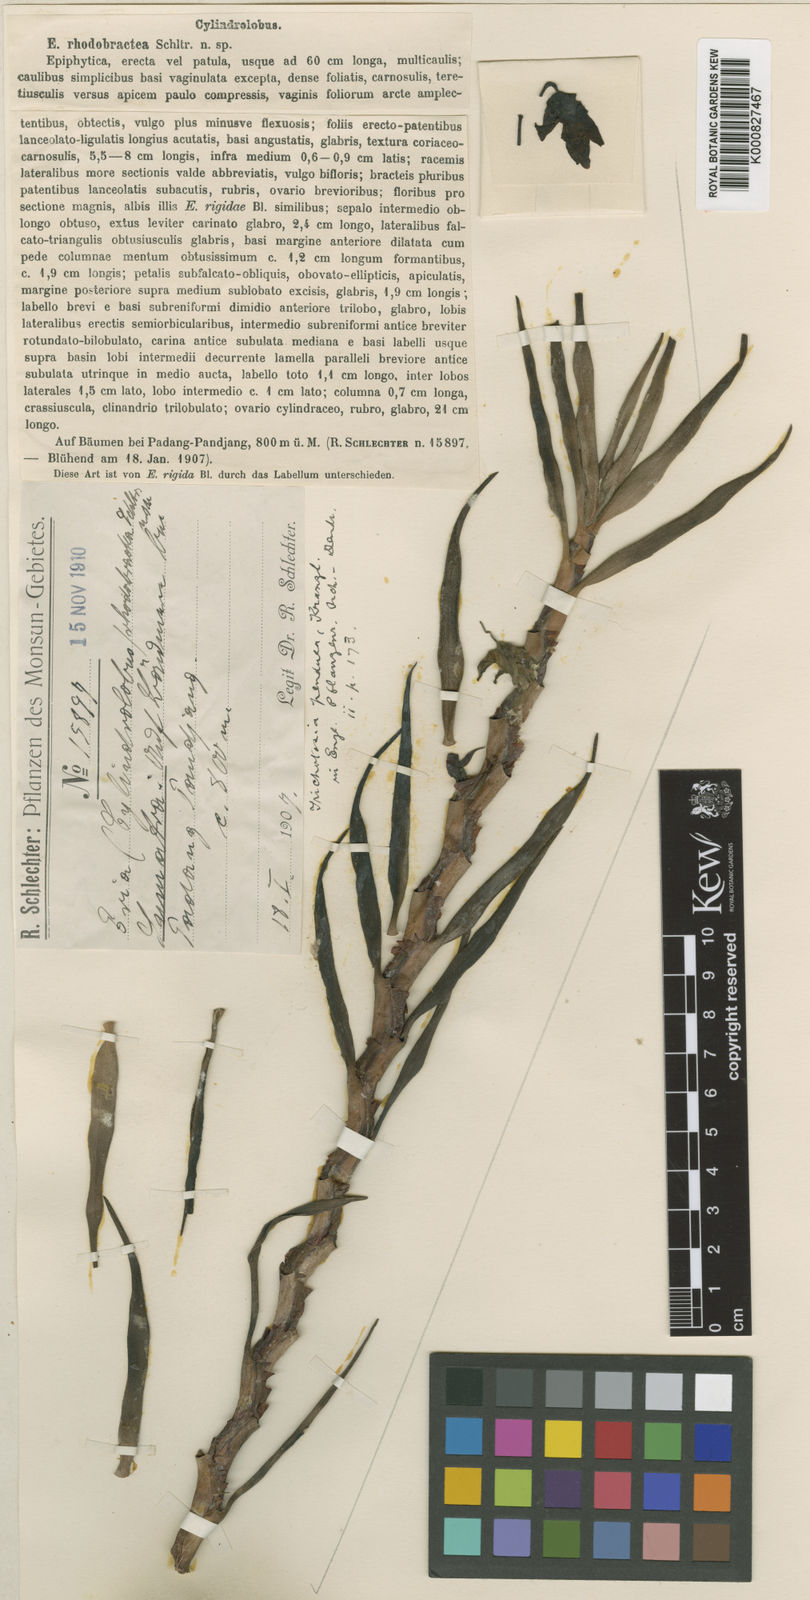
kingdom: Plantae
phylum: Tracheophyta
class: Liliopsida
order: Asparagales
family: Orchidaceae
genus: Cylindrolobus
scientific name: Cylindrolobus mucronatus
